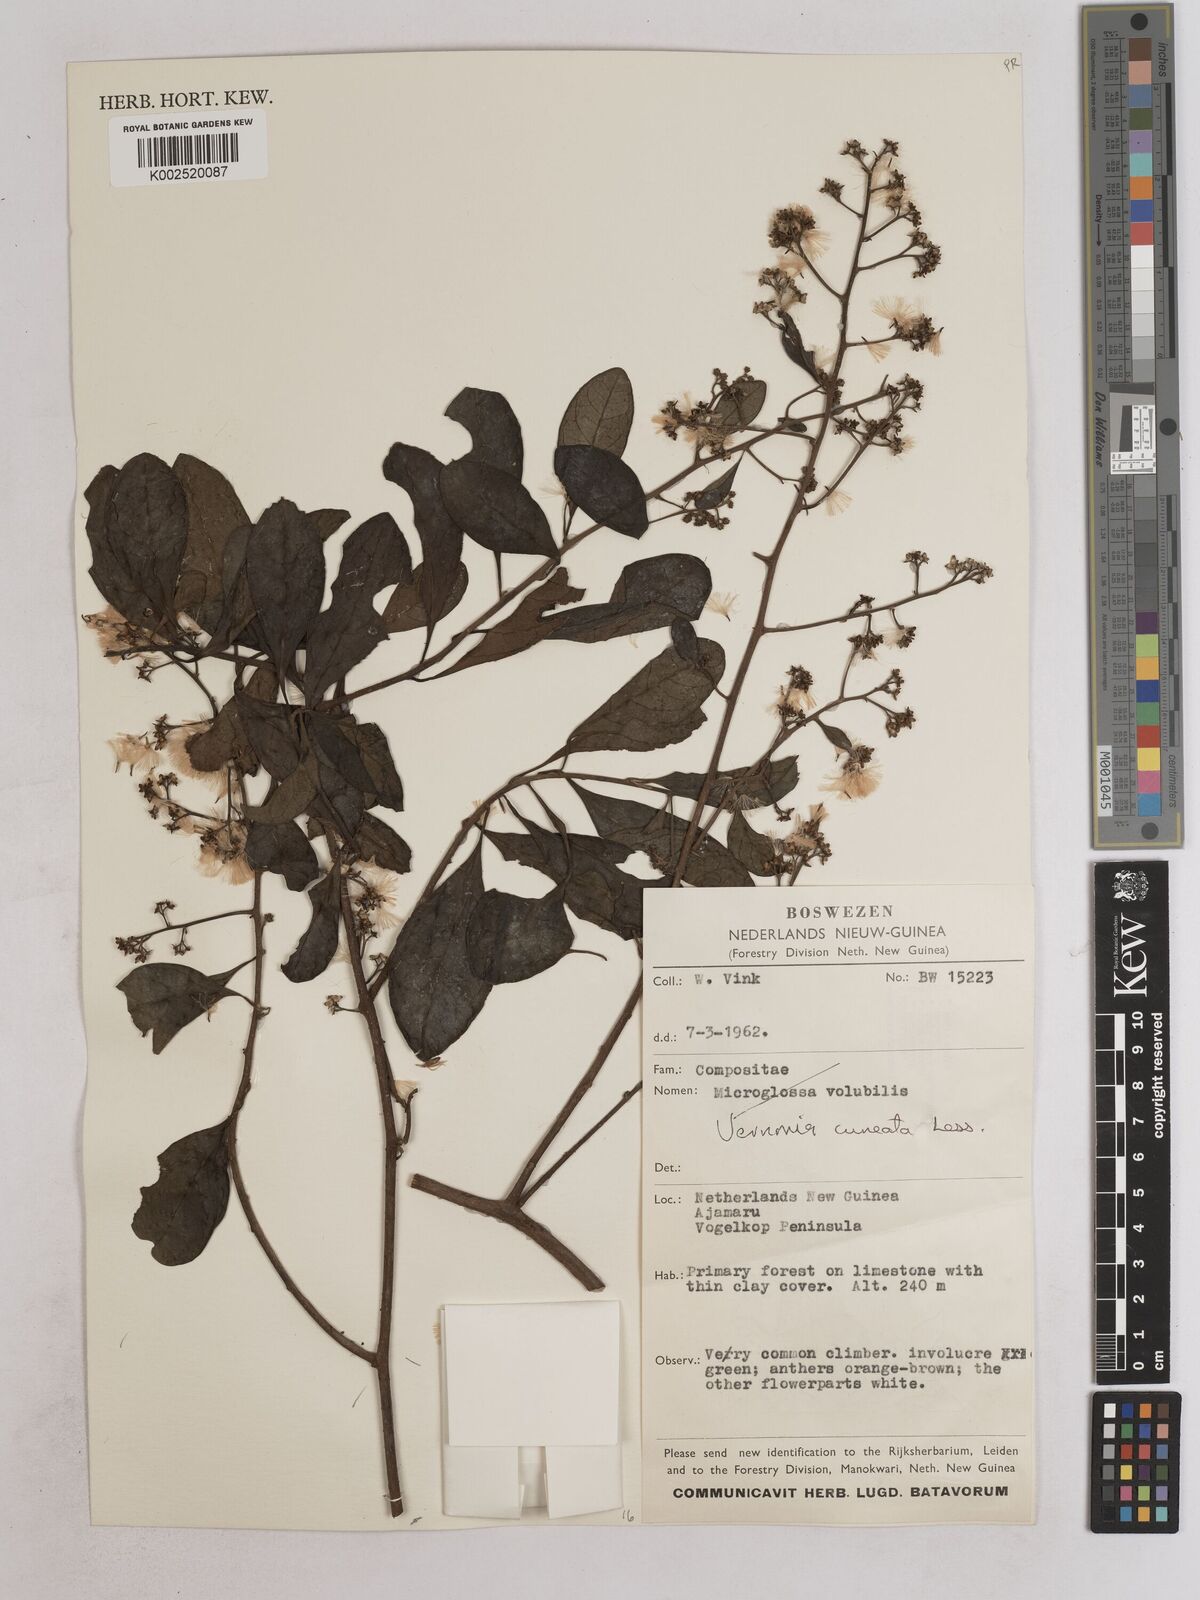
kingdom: Plantae
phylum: Tracheophyta
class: Magnoliopsida
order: Asterales
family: Asteraceae
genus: Decaneuropsis
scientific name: Decaneuropsis obovata
